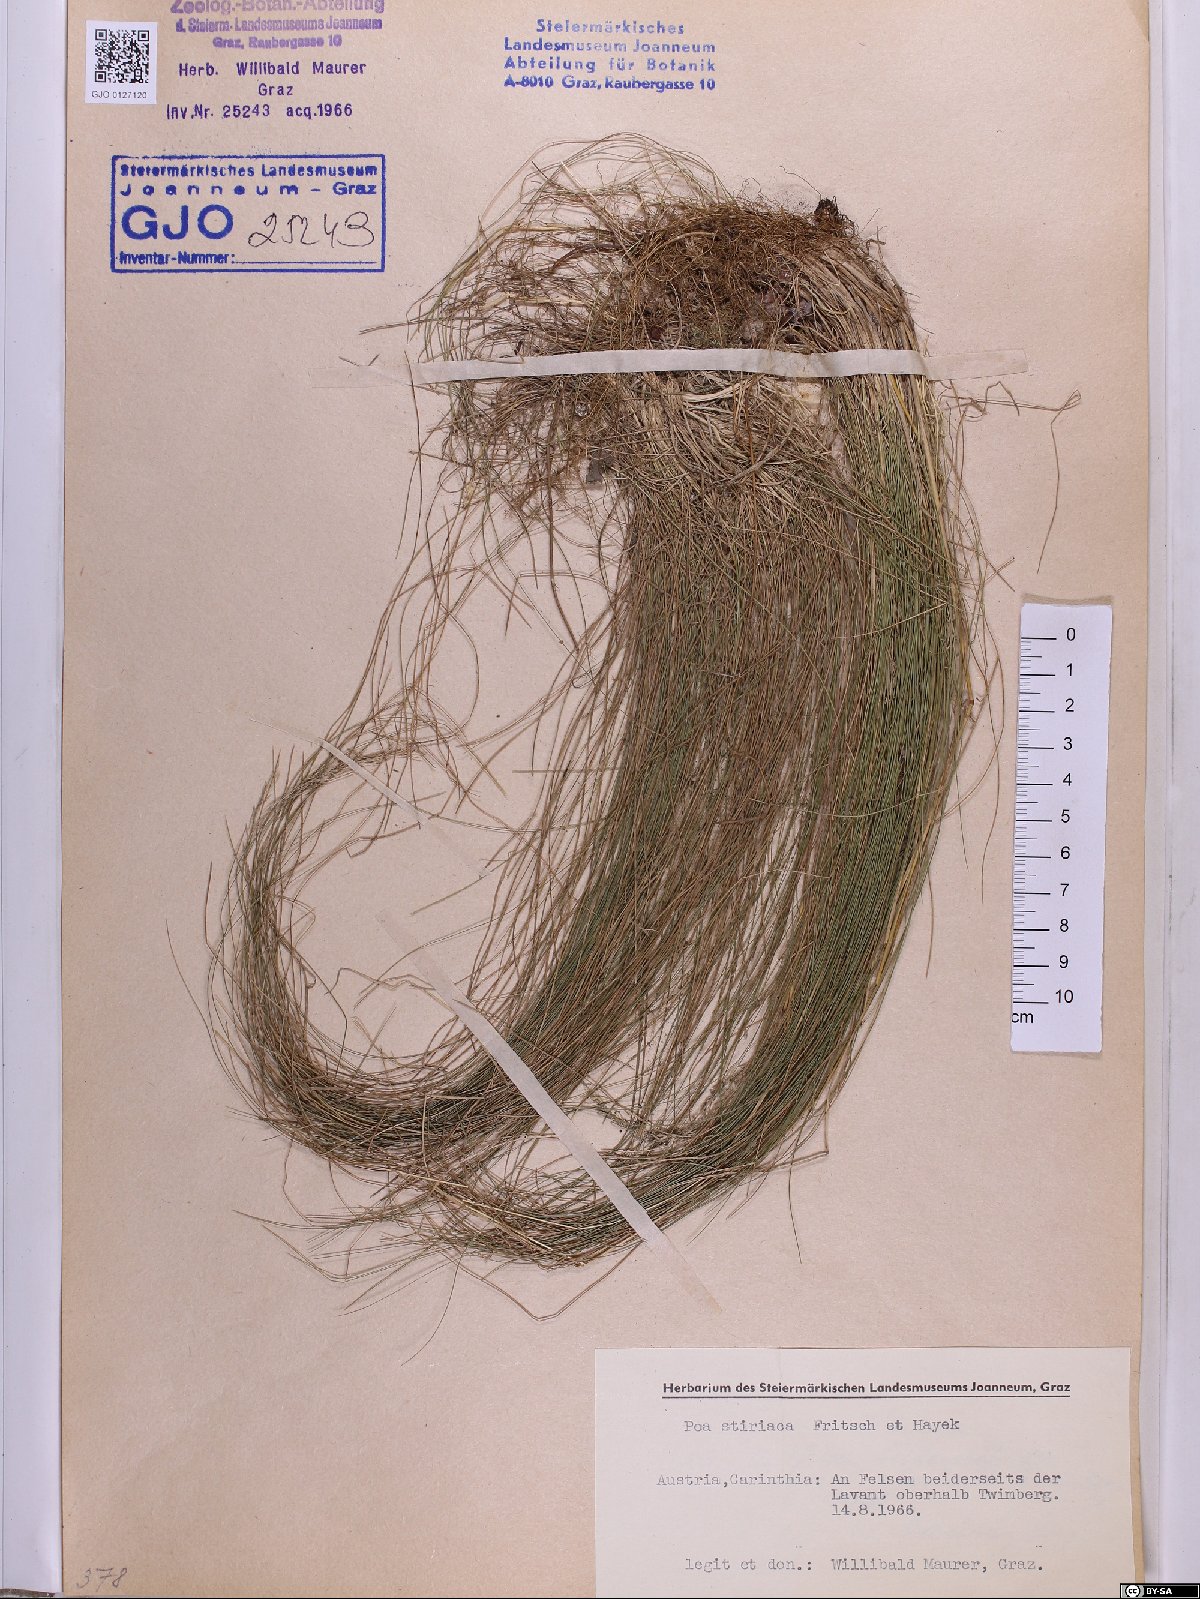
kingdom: Plantae
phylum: Tracheophyta
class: Liliopsida
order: Poales
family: Poaceae
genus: Poa
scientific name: Poa stiriaca
